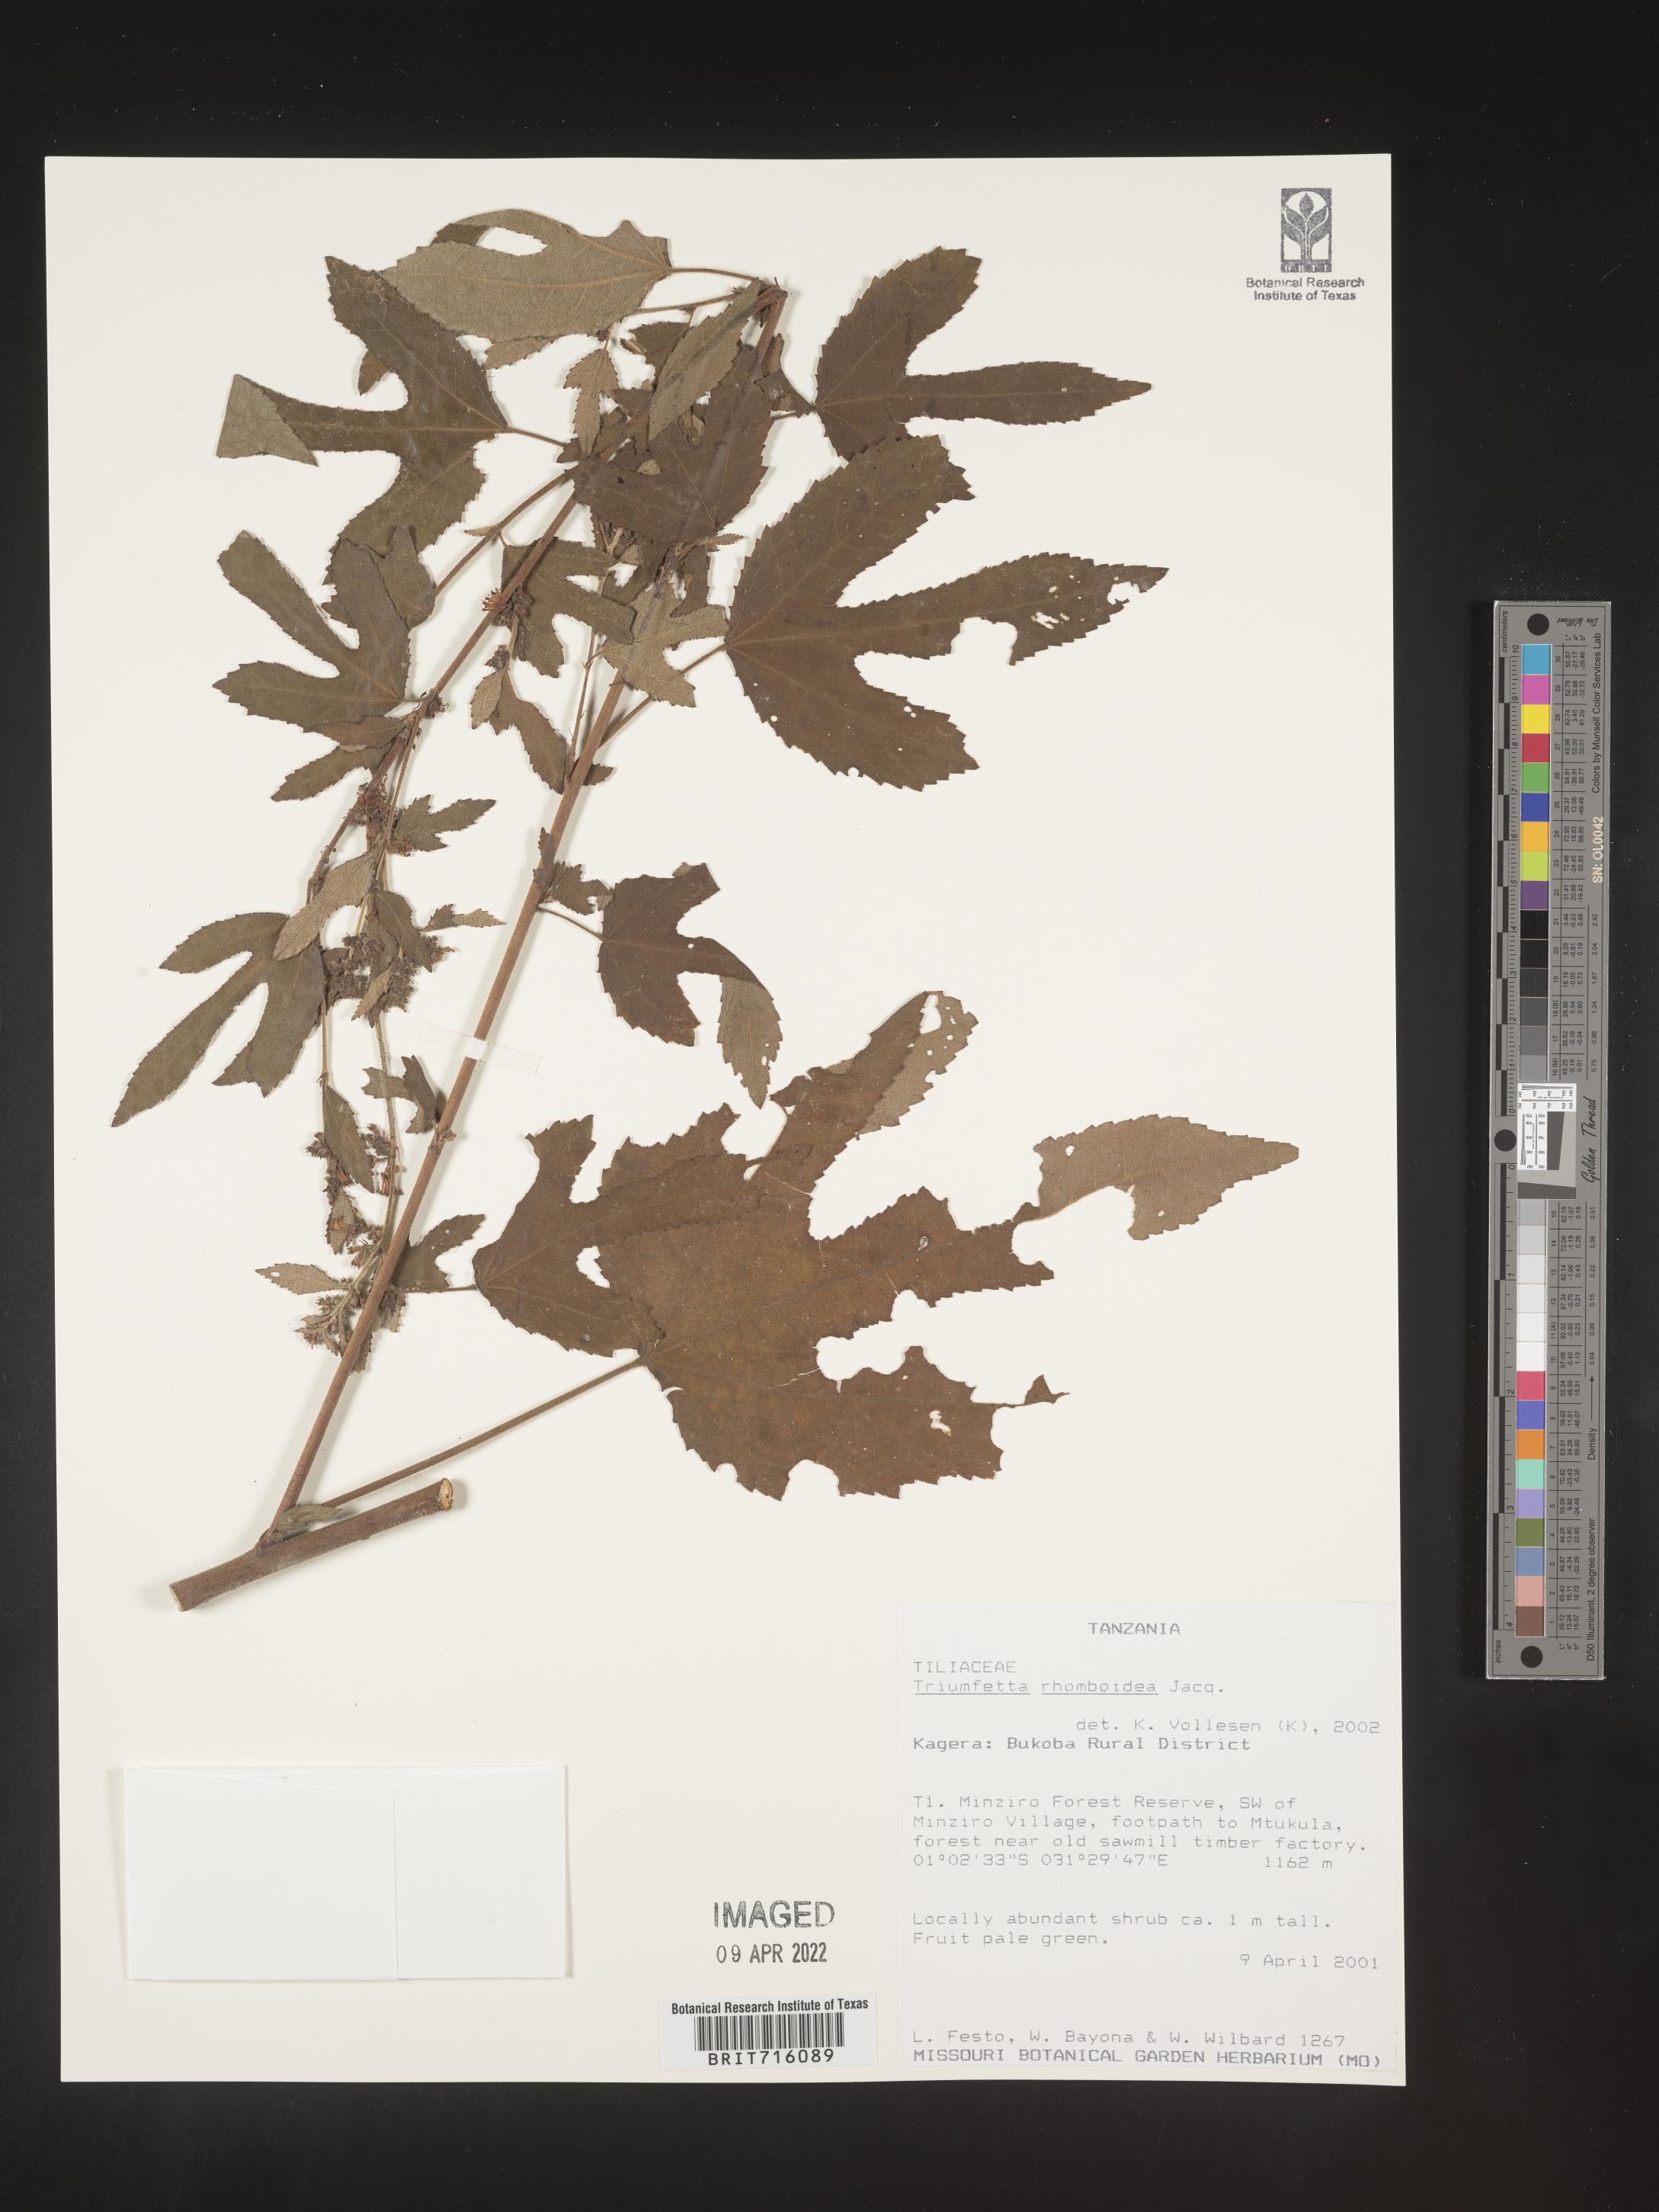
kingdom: Plantae
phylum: Tracheophyta
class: Magnoliopsida
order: Malvales
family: Malvaceae
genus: Triumfetta
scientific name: Triumfetta rhomboidea
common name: Diamond burbark
